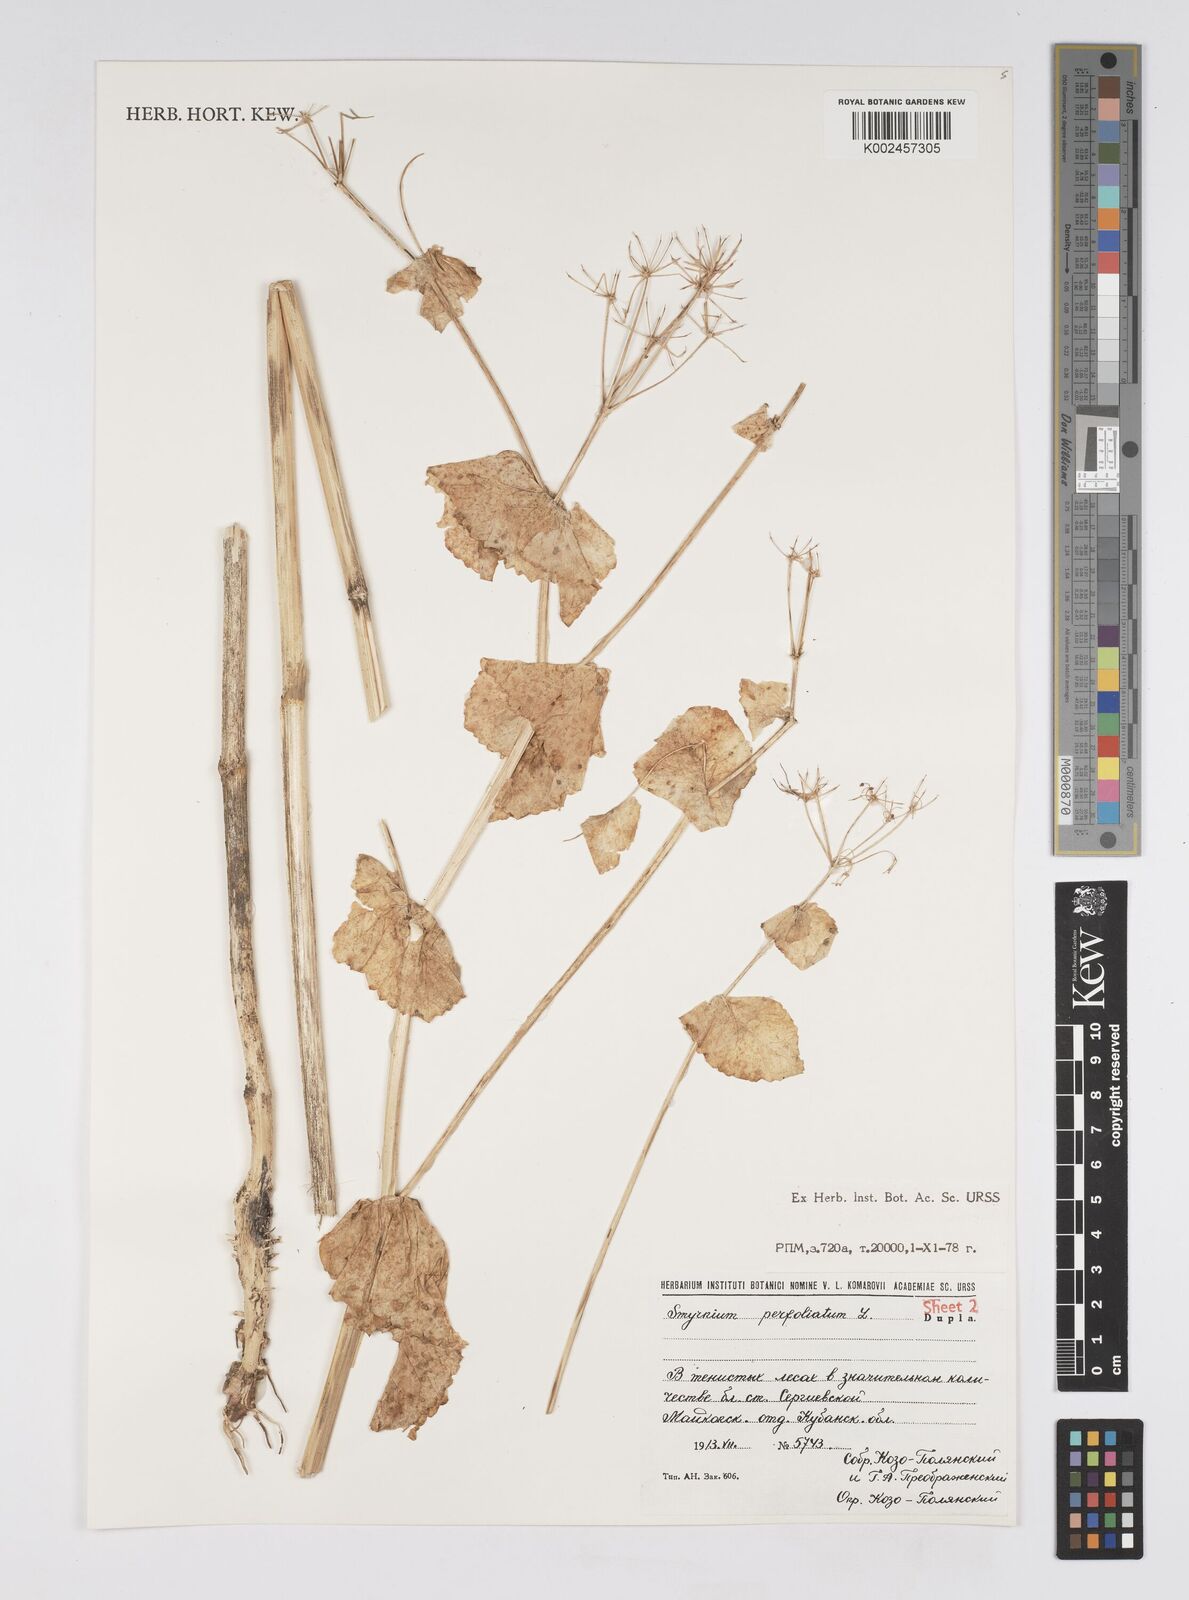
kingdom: Plantae
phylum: Tracheophyta
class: Magnoliopsida
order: Apiales
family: Apiaceae
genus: Smyrnium
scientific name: Smyrnium perfoliatum
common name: Perfoliate alexanders
